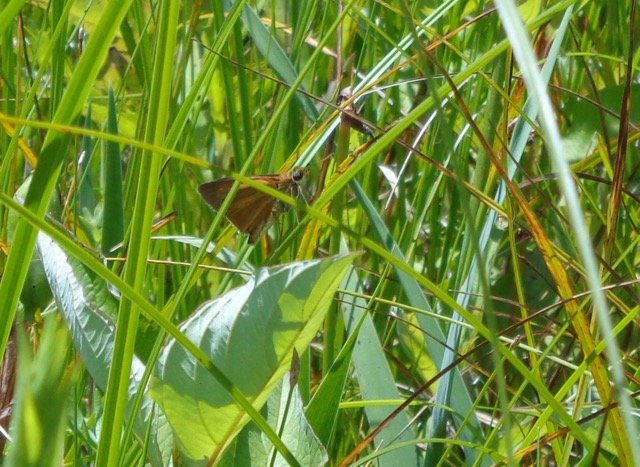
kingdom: Animalia
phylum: Arthropoda
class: Insecta
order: Lepidoptera
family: Hesperiidae
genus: Euphyes
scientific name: Euphyes dion
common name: Dion Skipper
